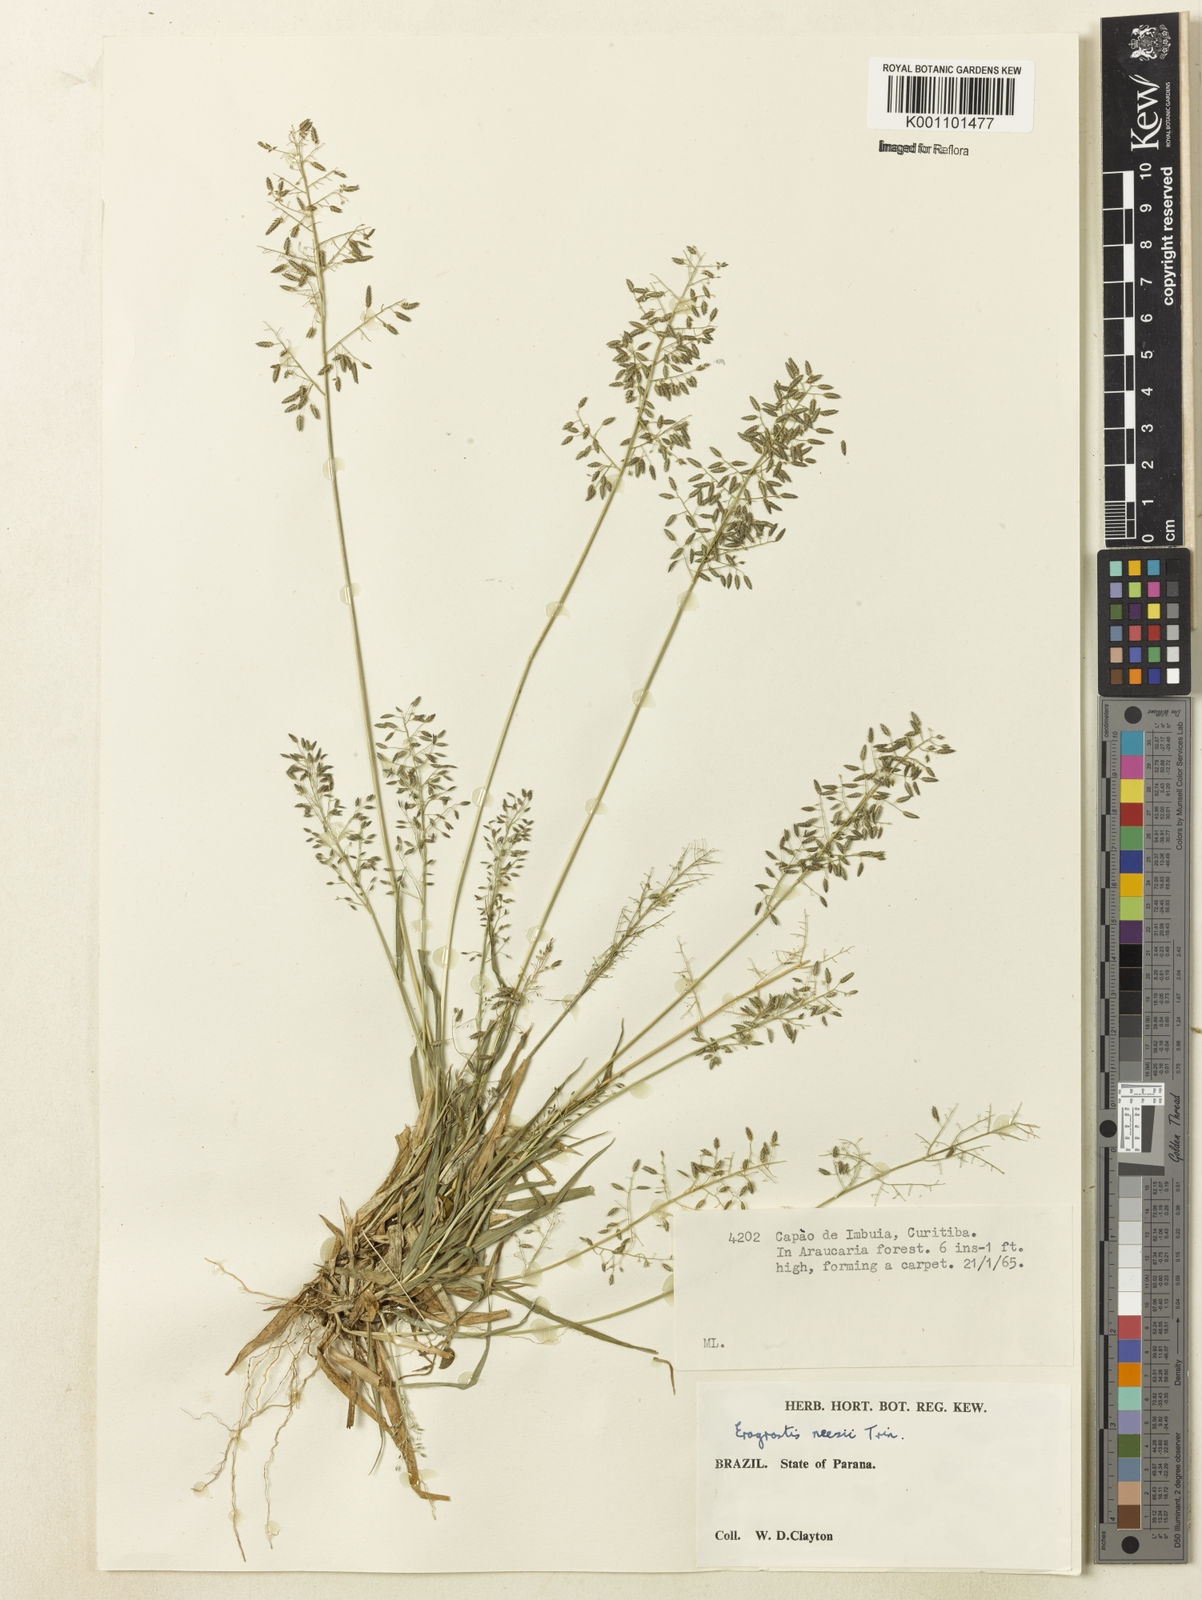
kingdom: Plantae
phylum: Tracheophyta
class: Liliopsida
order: Poales
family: Poaceae
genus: Eragrostis
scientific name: Eragrostis neesii
